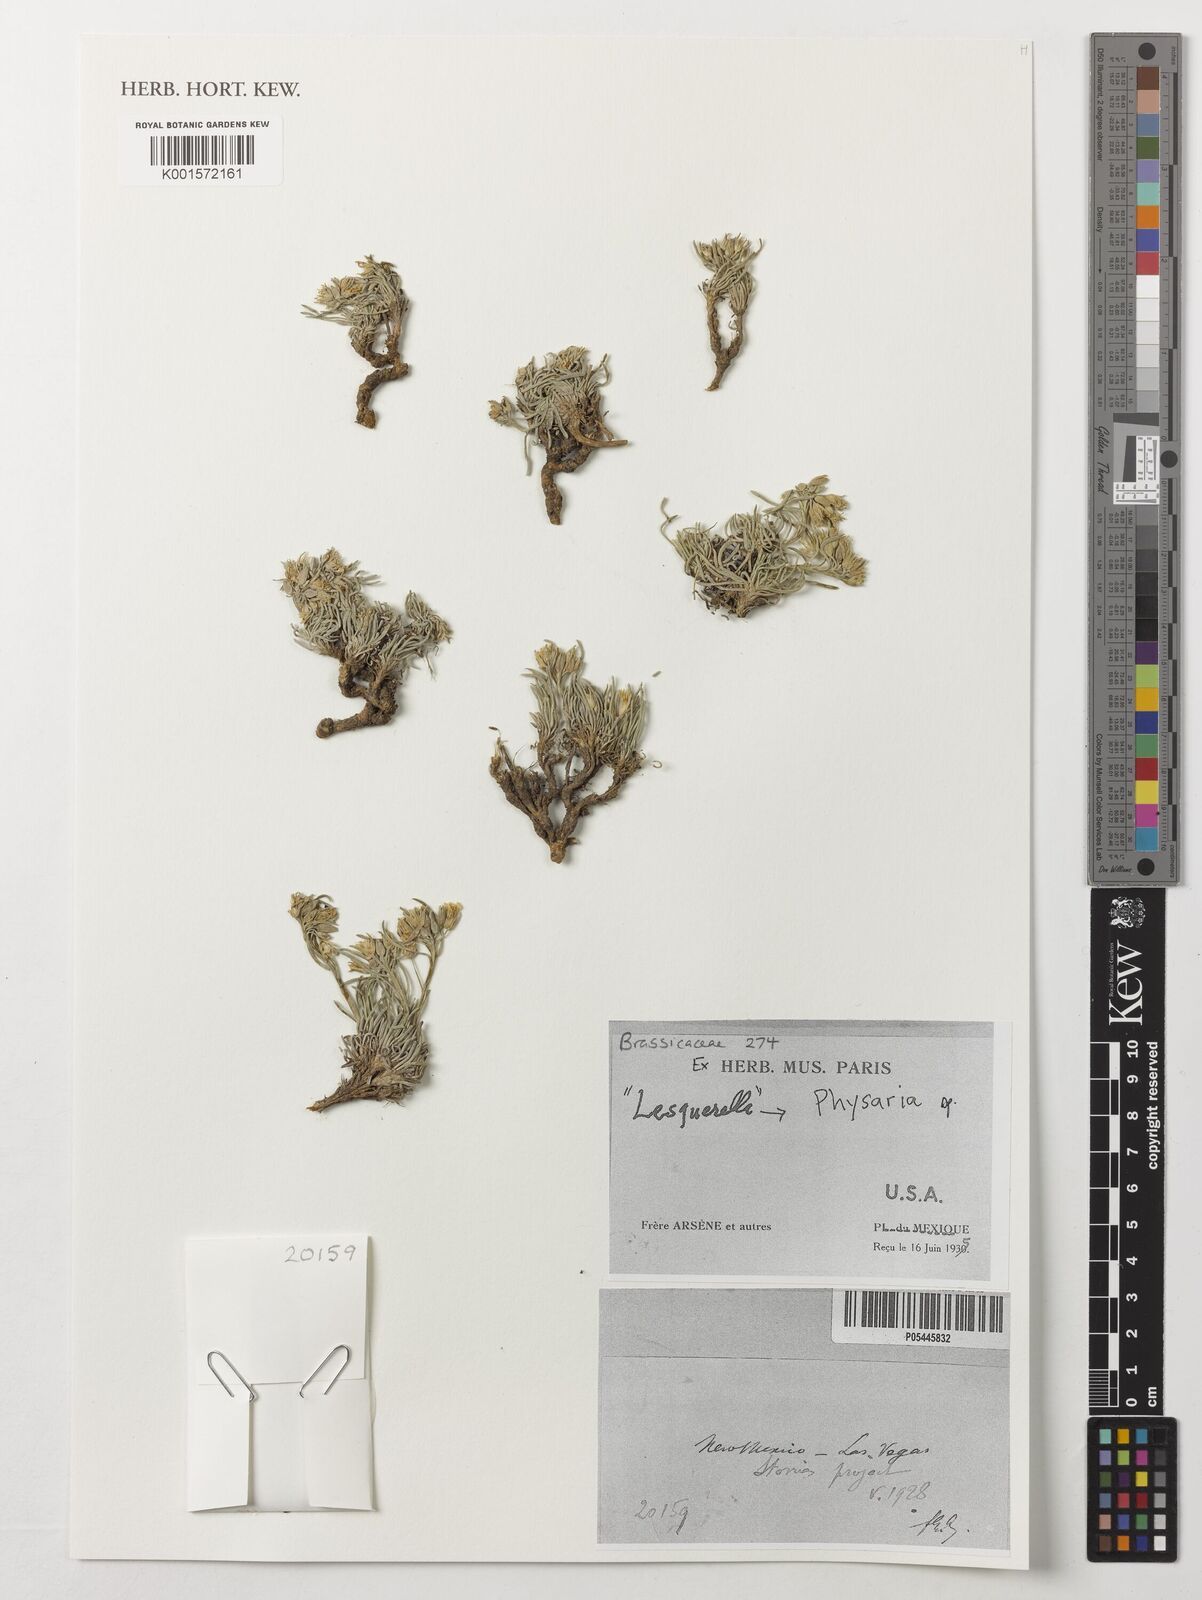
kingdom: Plantae
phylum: Tracheophyta
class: Magnoliopsida
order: Brassicales
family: Brassicaceae
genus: Physaria
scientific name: Physaria
